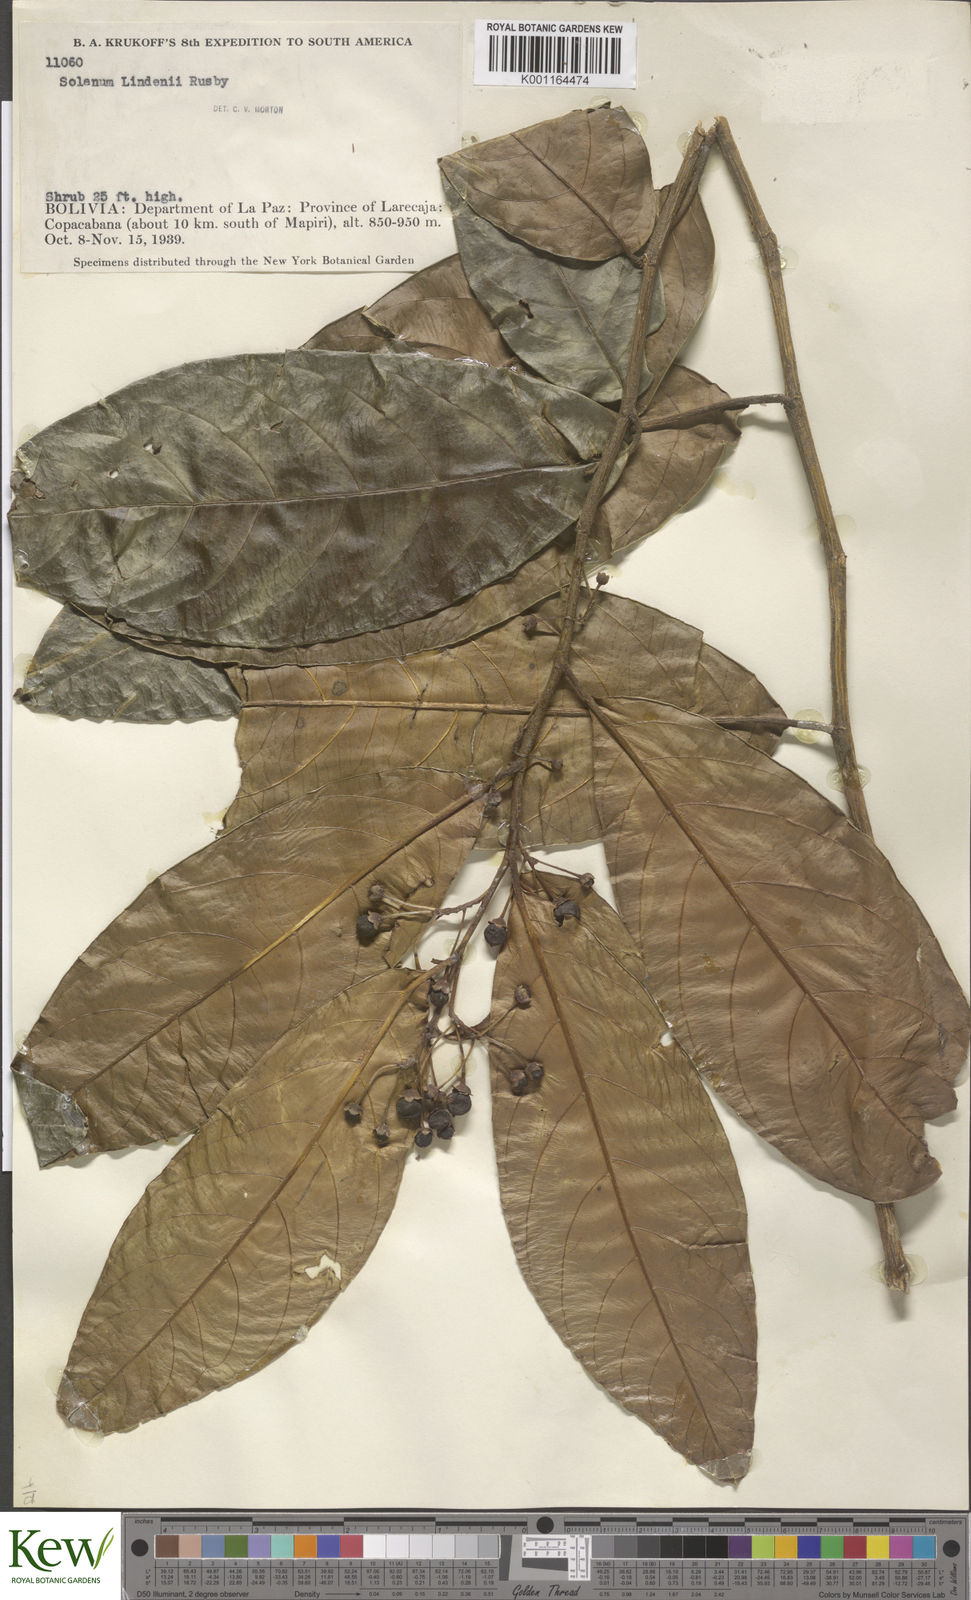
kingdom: Plantae
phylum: Tracheophyta
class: Magnoliopsida
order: Solanales
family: Solanaceae
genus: Solanum
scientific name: Solanum lindenii
